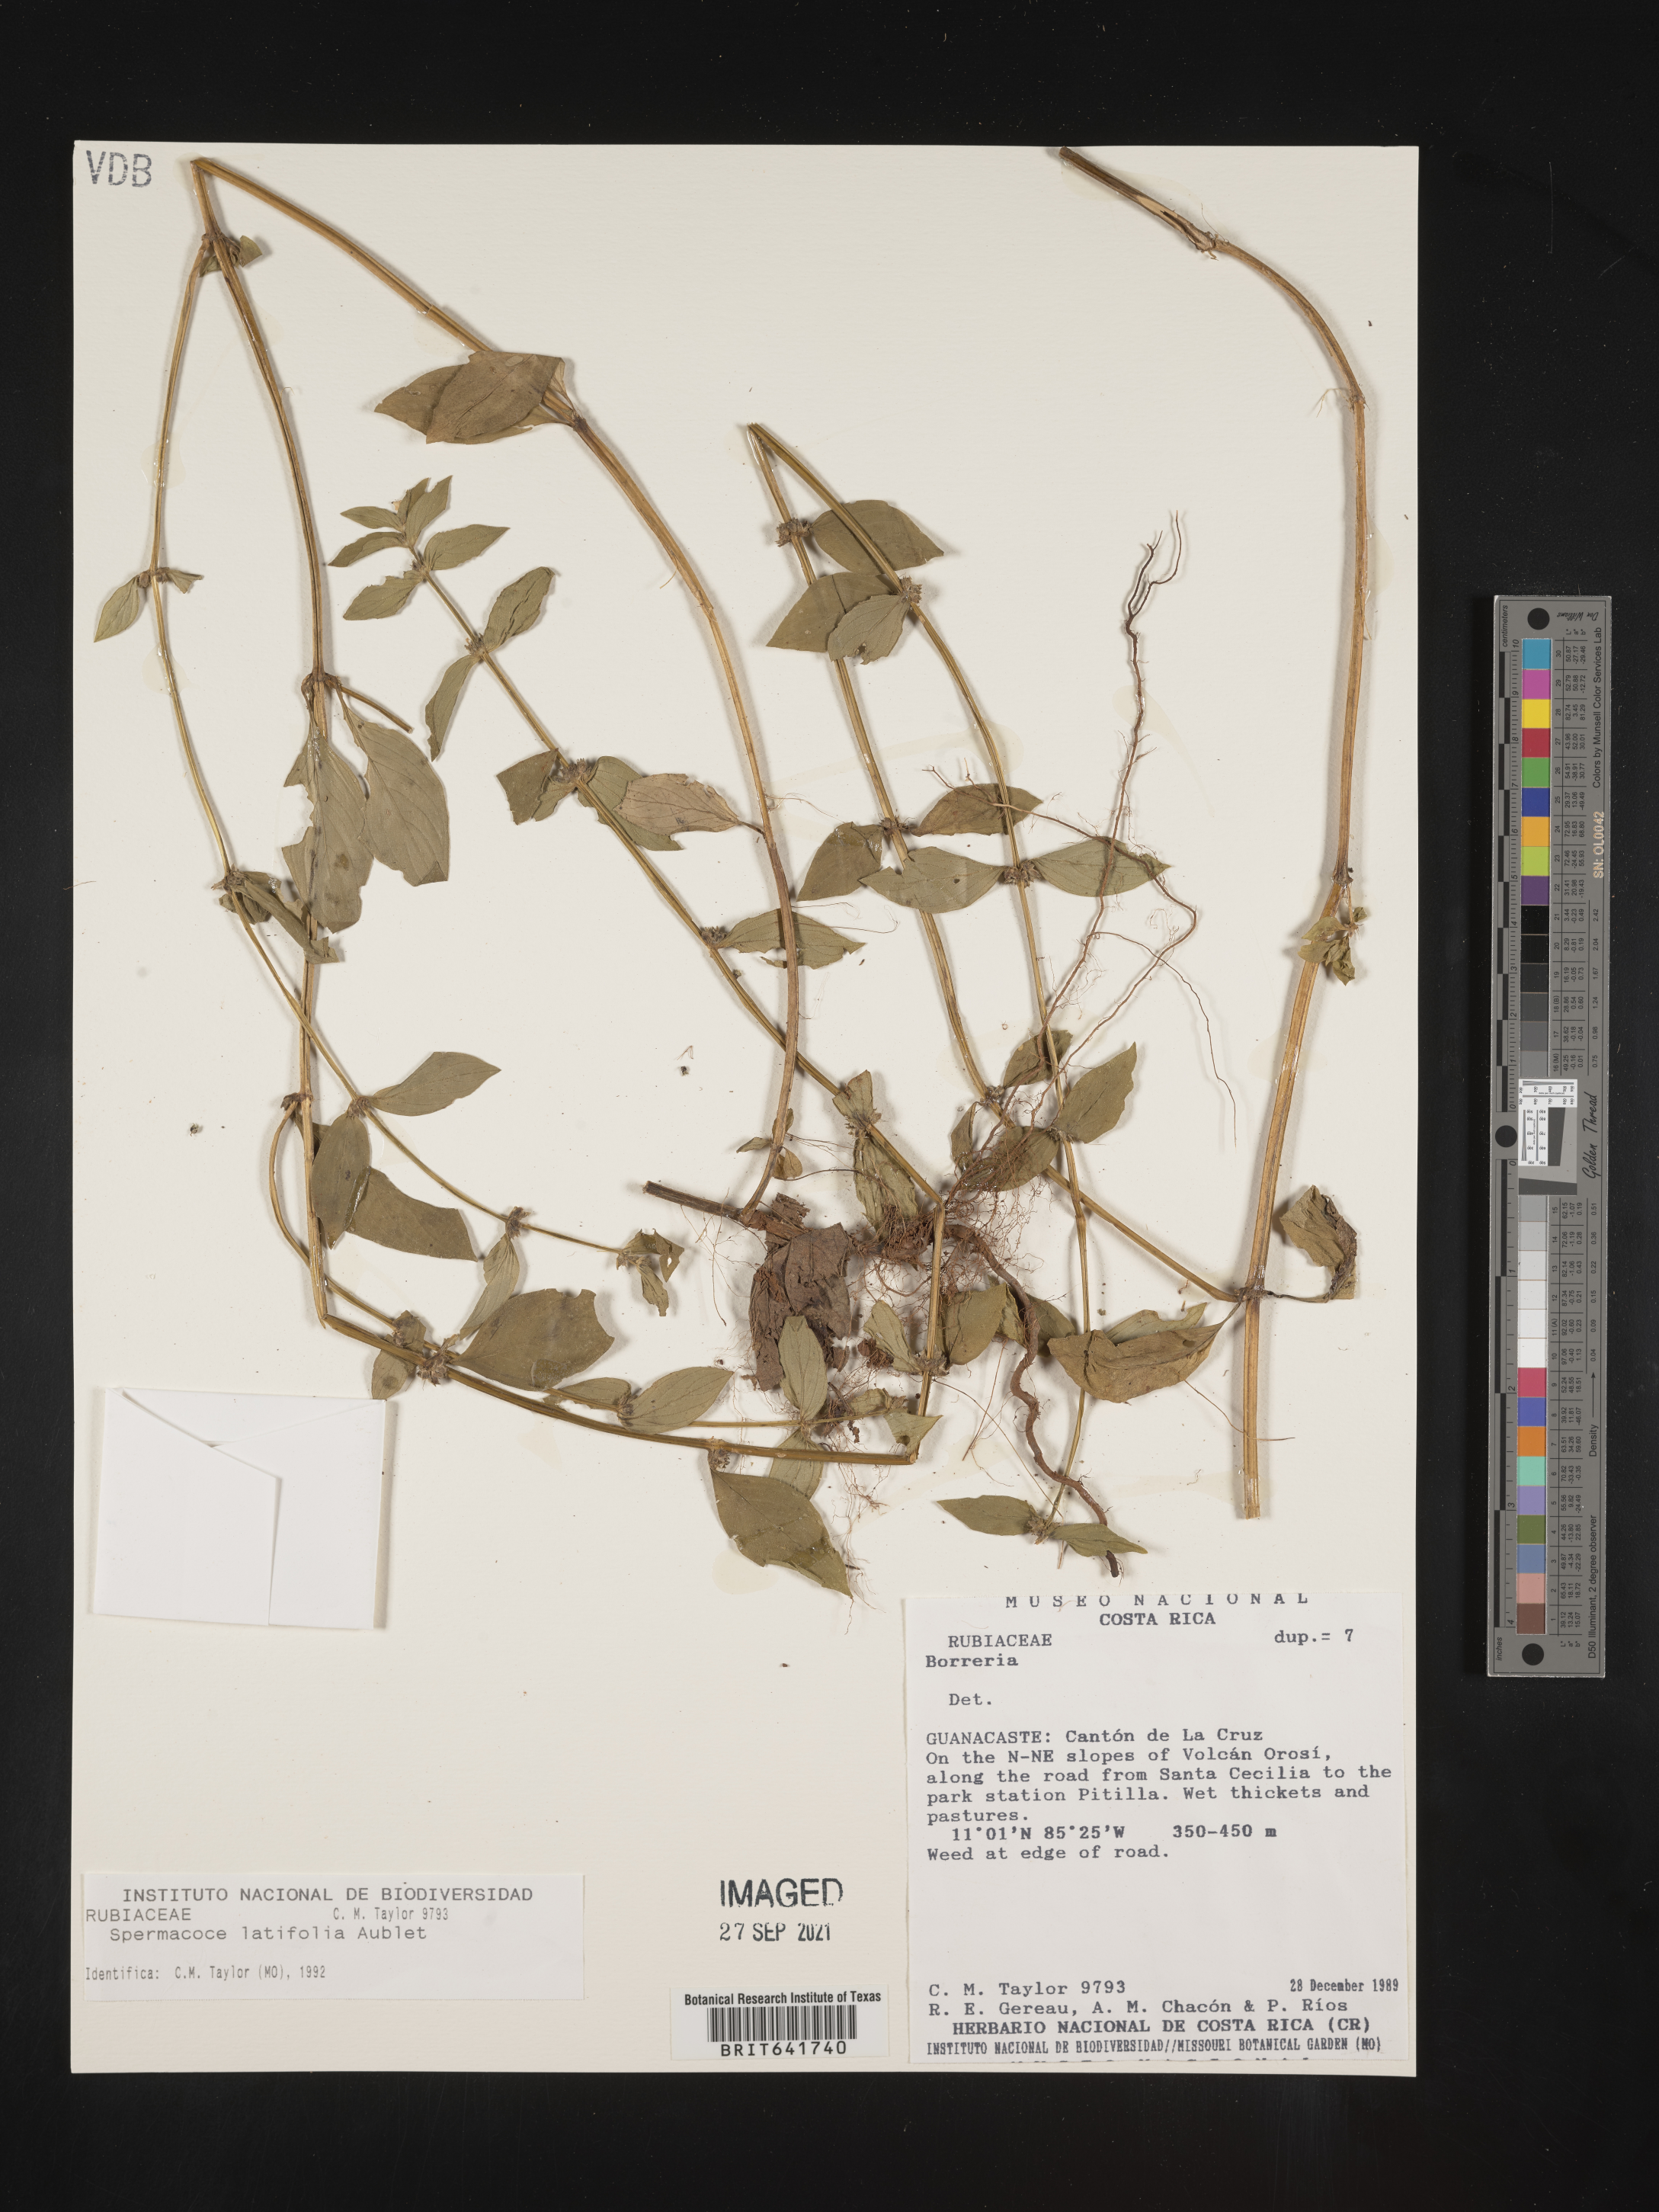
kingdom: Plantae
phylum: Tracheophyta
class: Magnoliopsida
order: Gentianales
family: Rubiaceae
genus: Spermacoce
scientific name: Spermacoce
